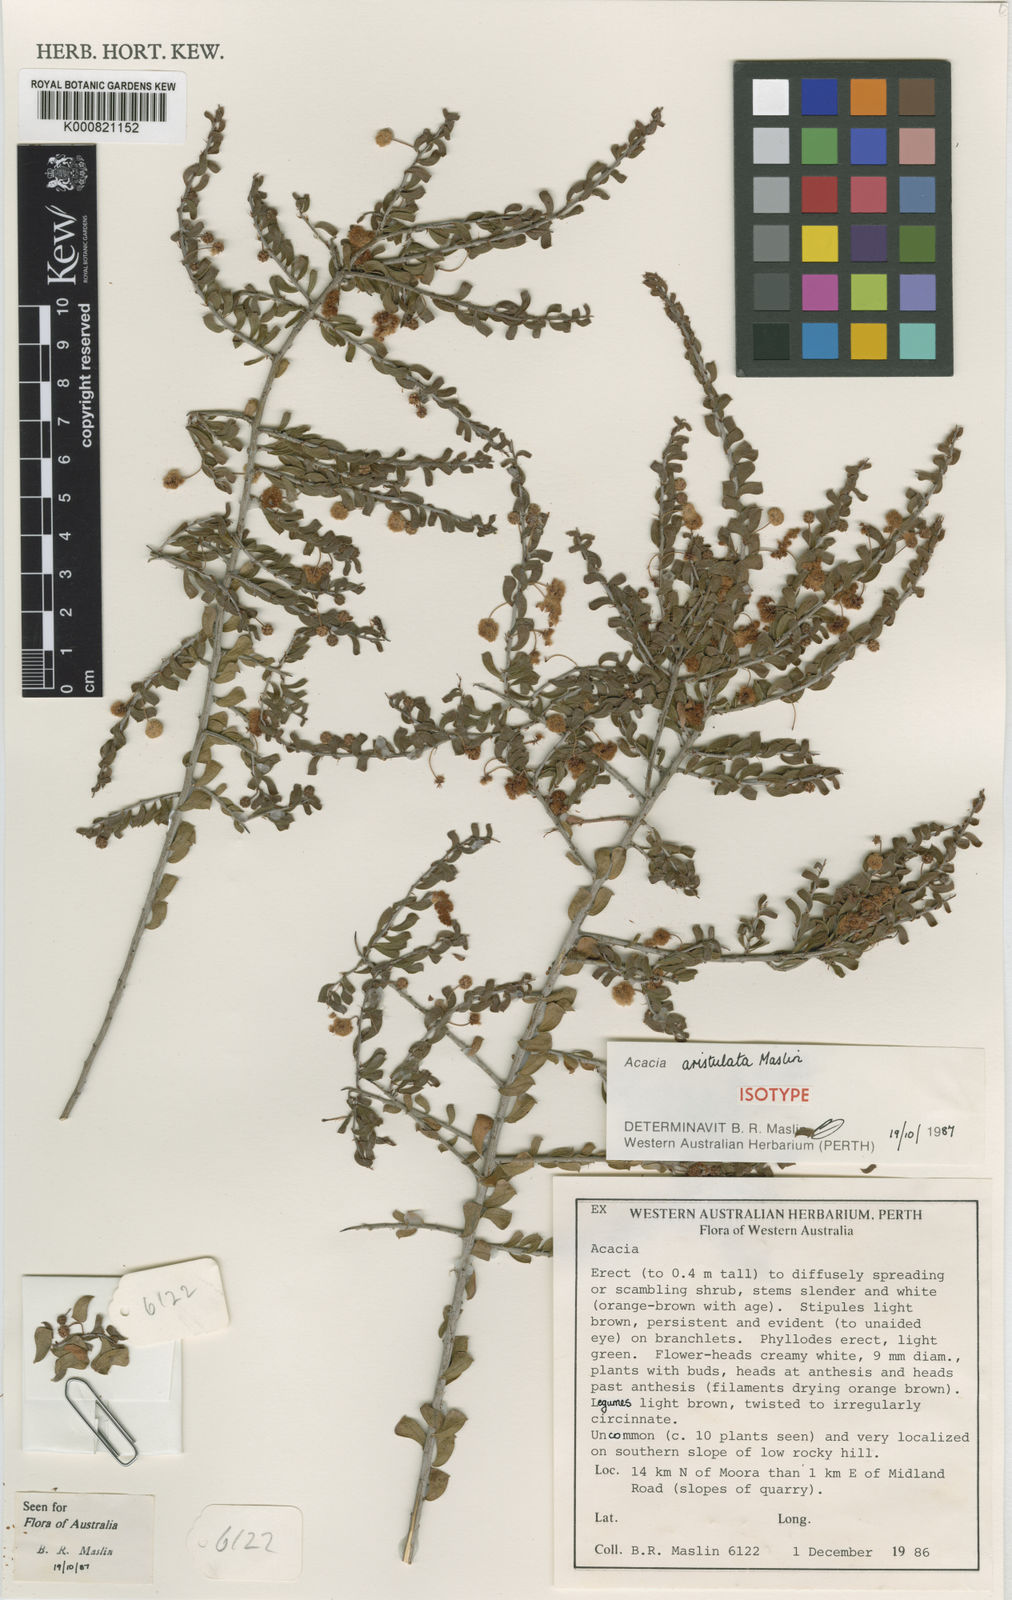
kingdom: Plantae
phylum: Tracheophyta
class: Magnoliopsida
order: Fabales
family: Fabaceae
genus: Acacia
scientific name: Acacia aristulata
